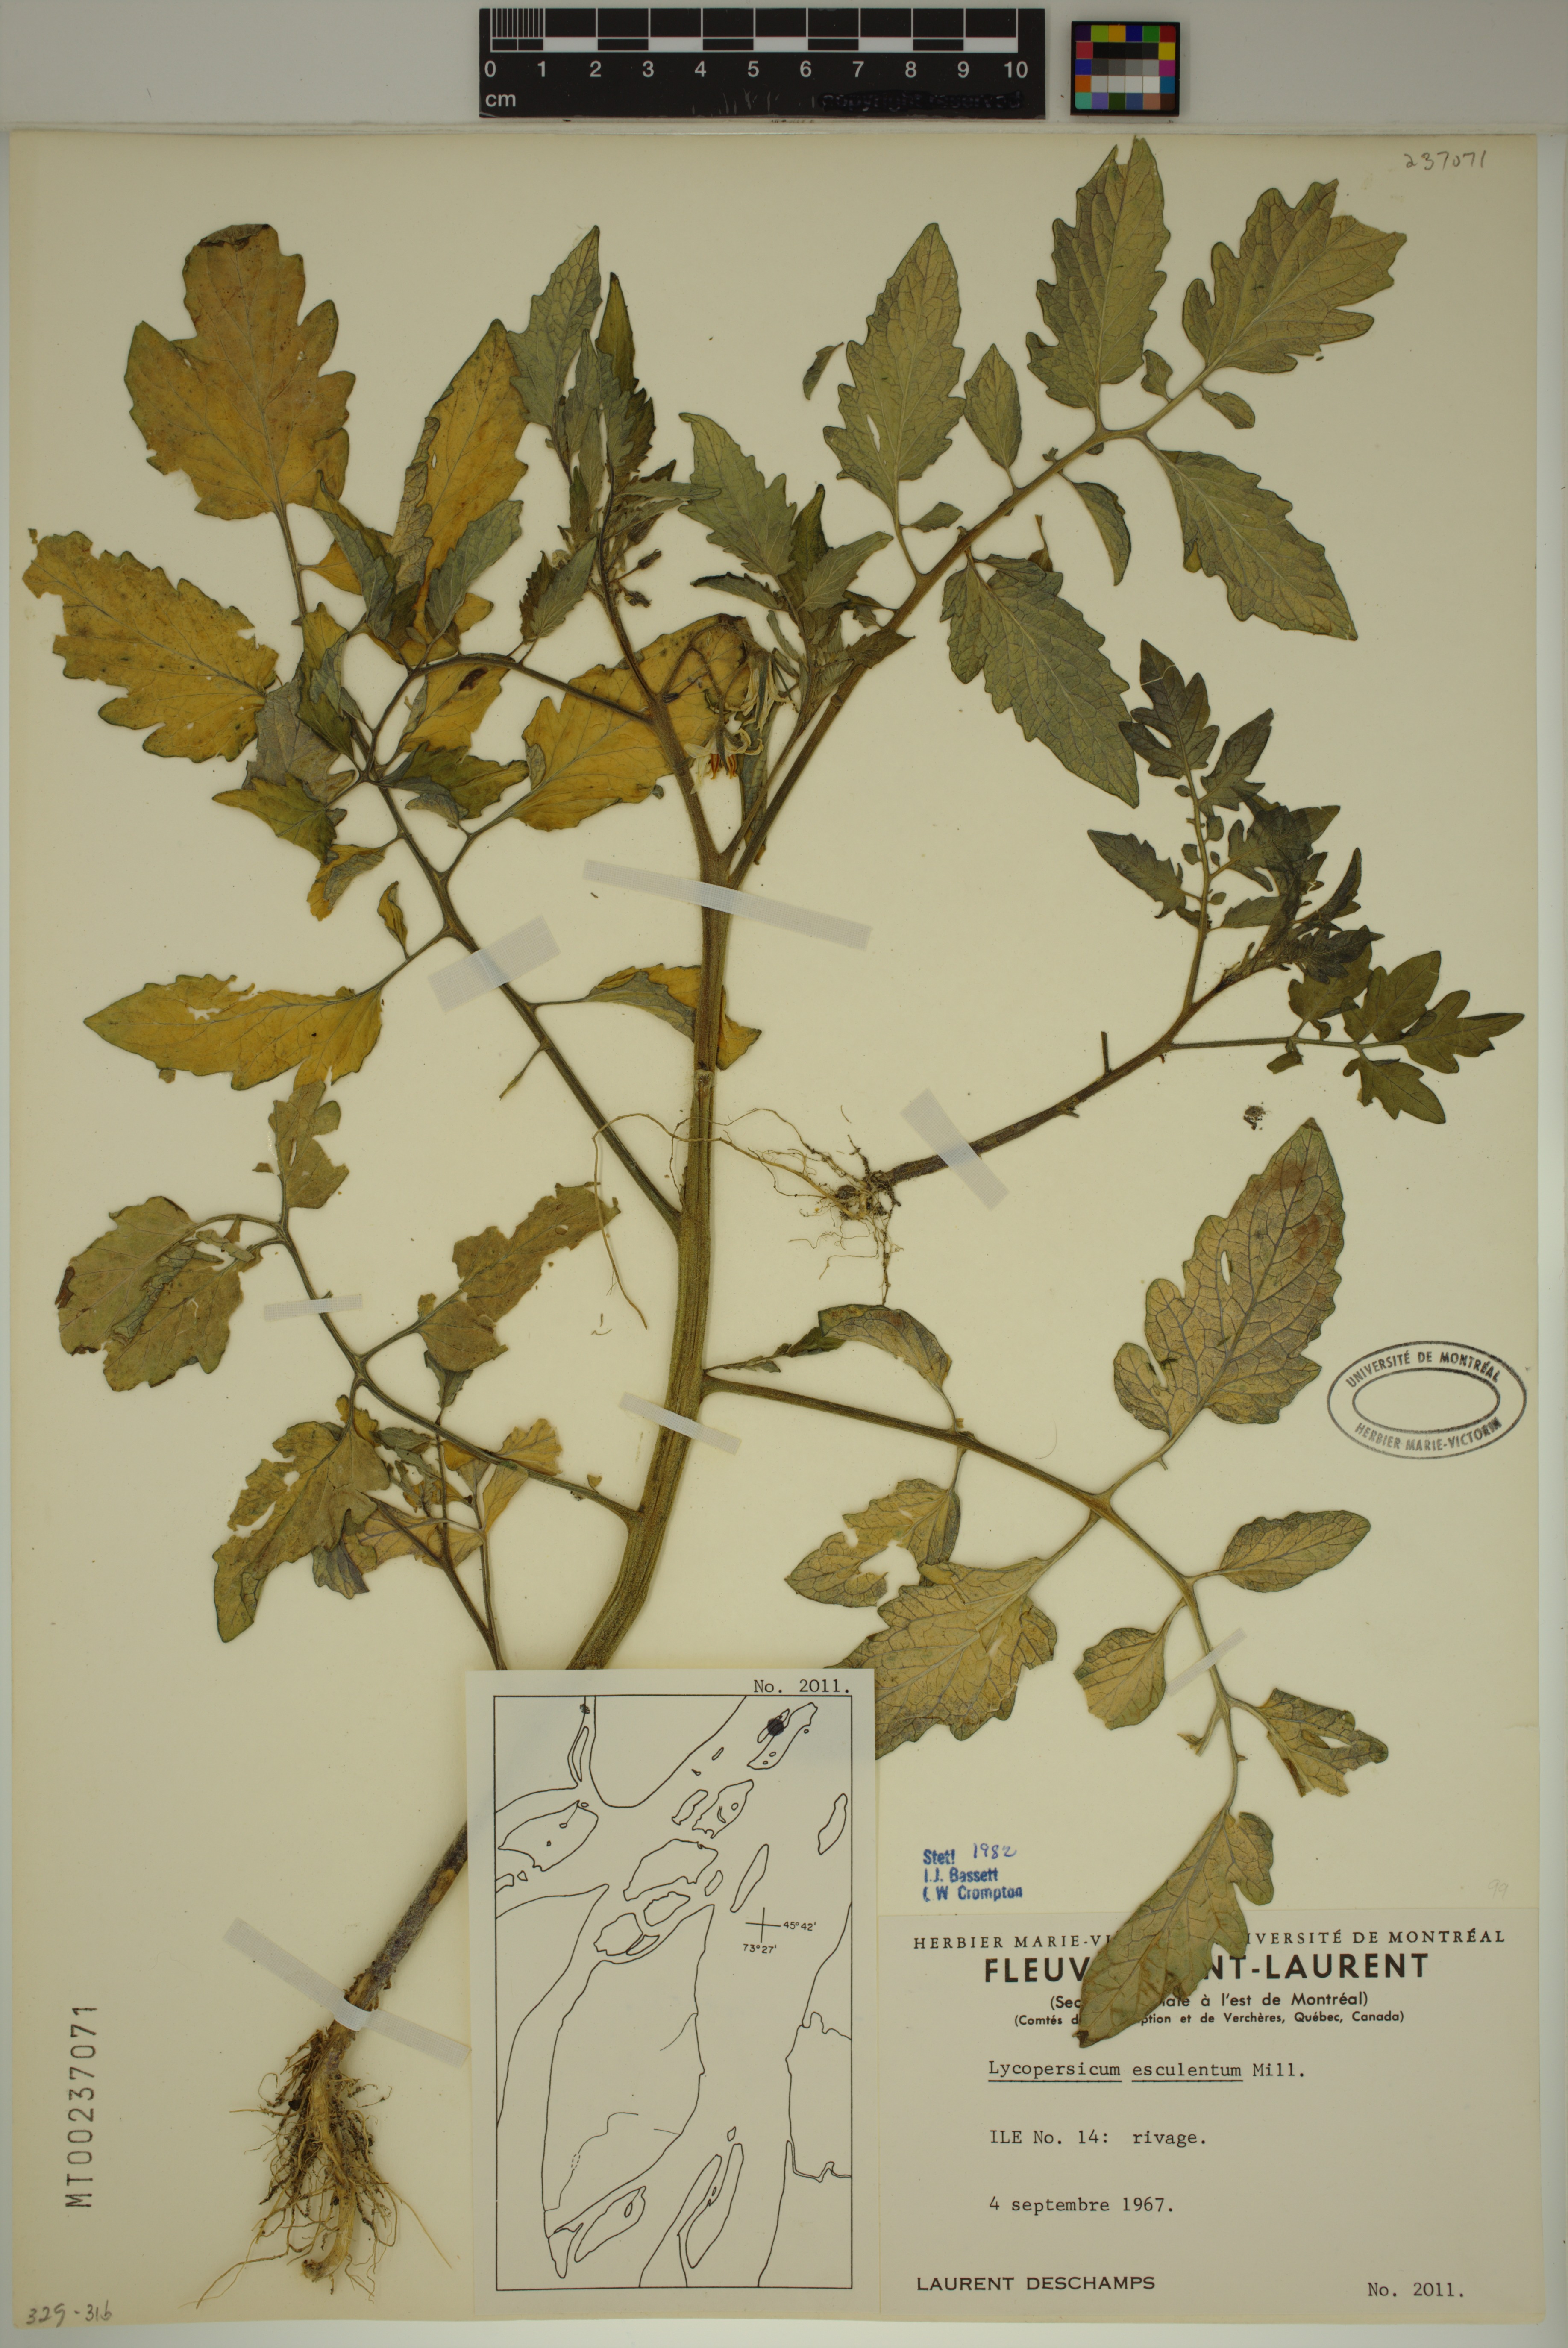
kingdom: Plantae
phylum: Tracheophyta
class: Magnoliopsida
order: Solanales
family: Solanaceae
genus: Solanum
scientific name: Solanum lycopersicum
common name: Garden tomato
